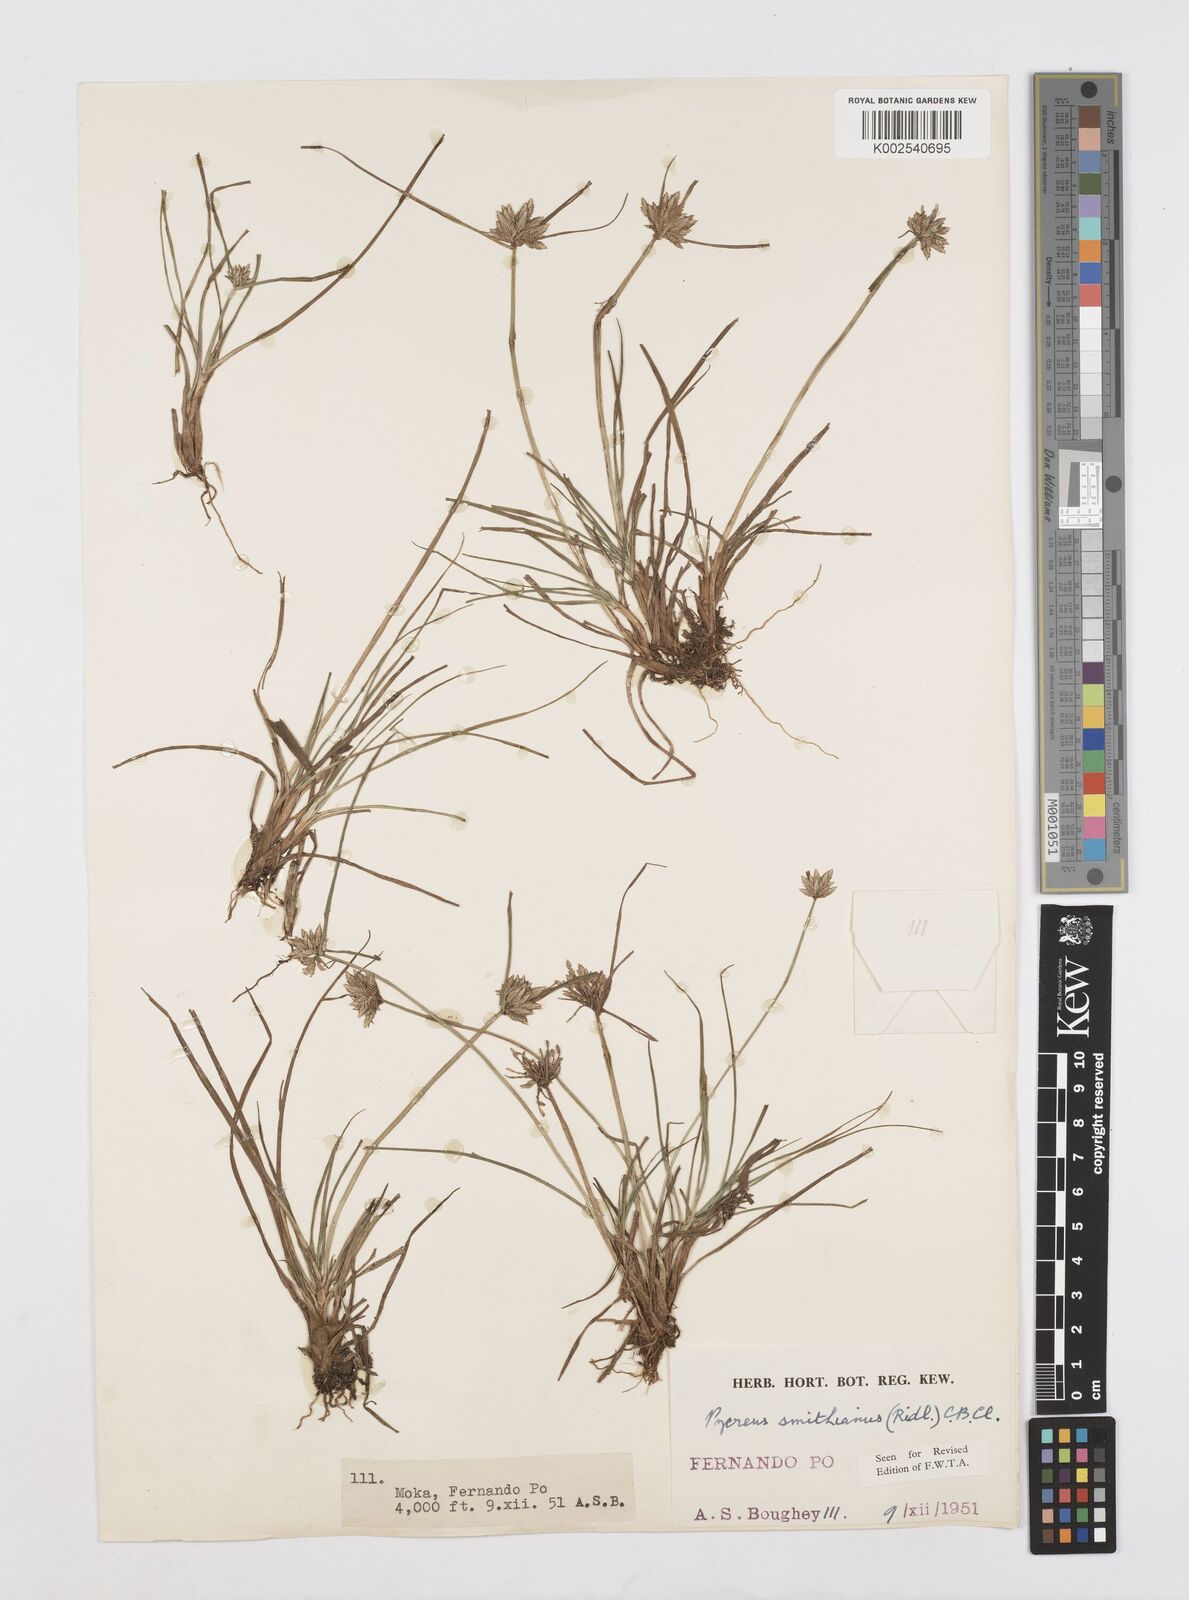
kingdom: Plantae
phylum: Tracheophyta
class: Liliopsida
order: Poales
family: Cyperaceae
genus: Cyperus
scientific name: Cyperus smithianus
